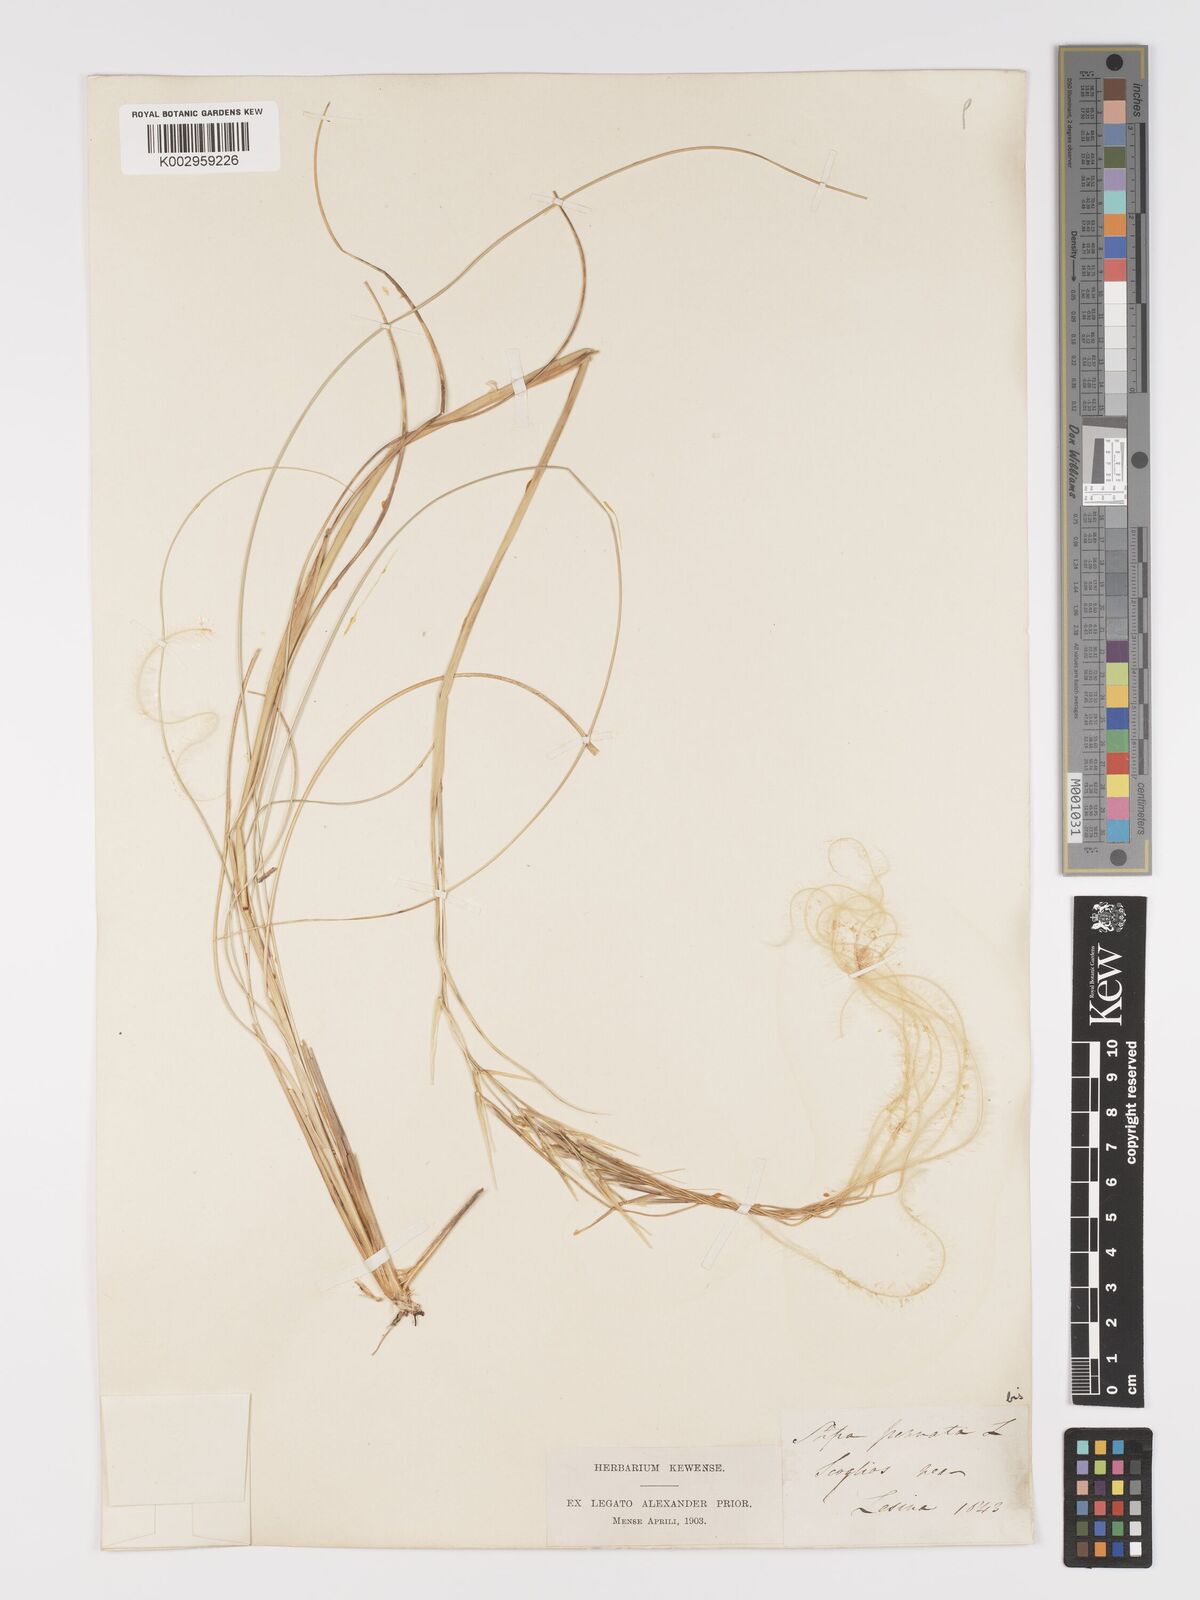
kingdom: Plantae
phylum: Tracheophyta
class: Liliopsida
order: Poales
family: Poaceae
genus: Stipa
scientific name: Stipa pennata
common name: European feather grass
